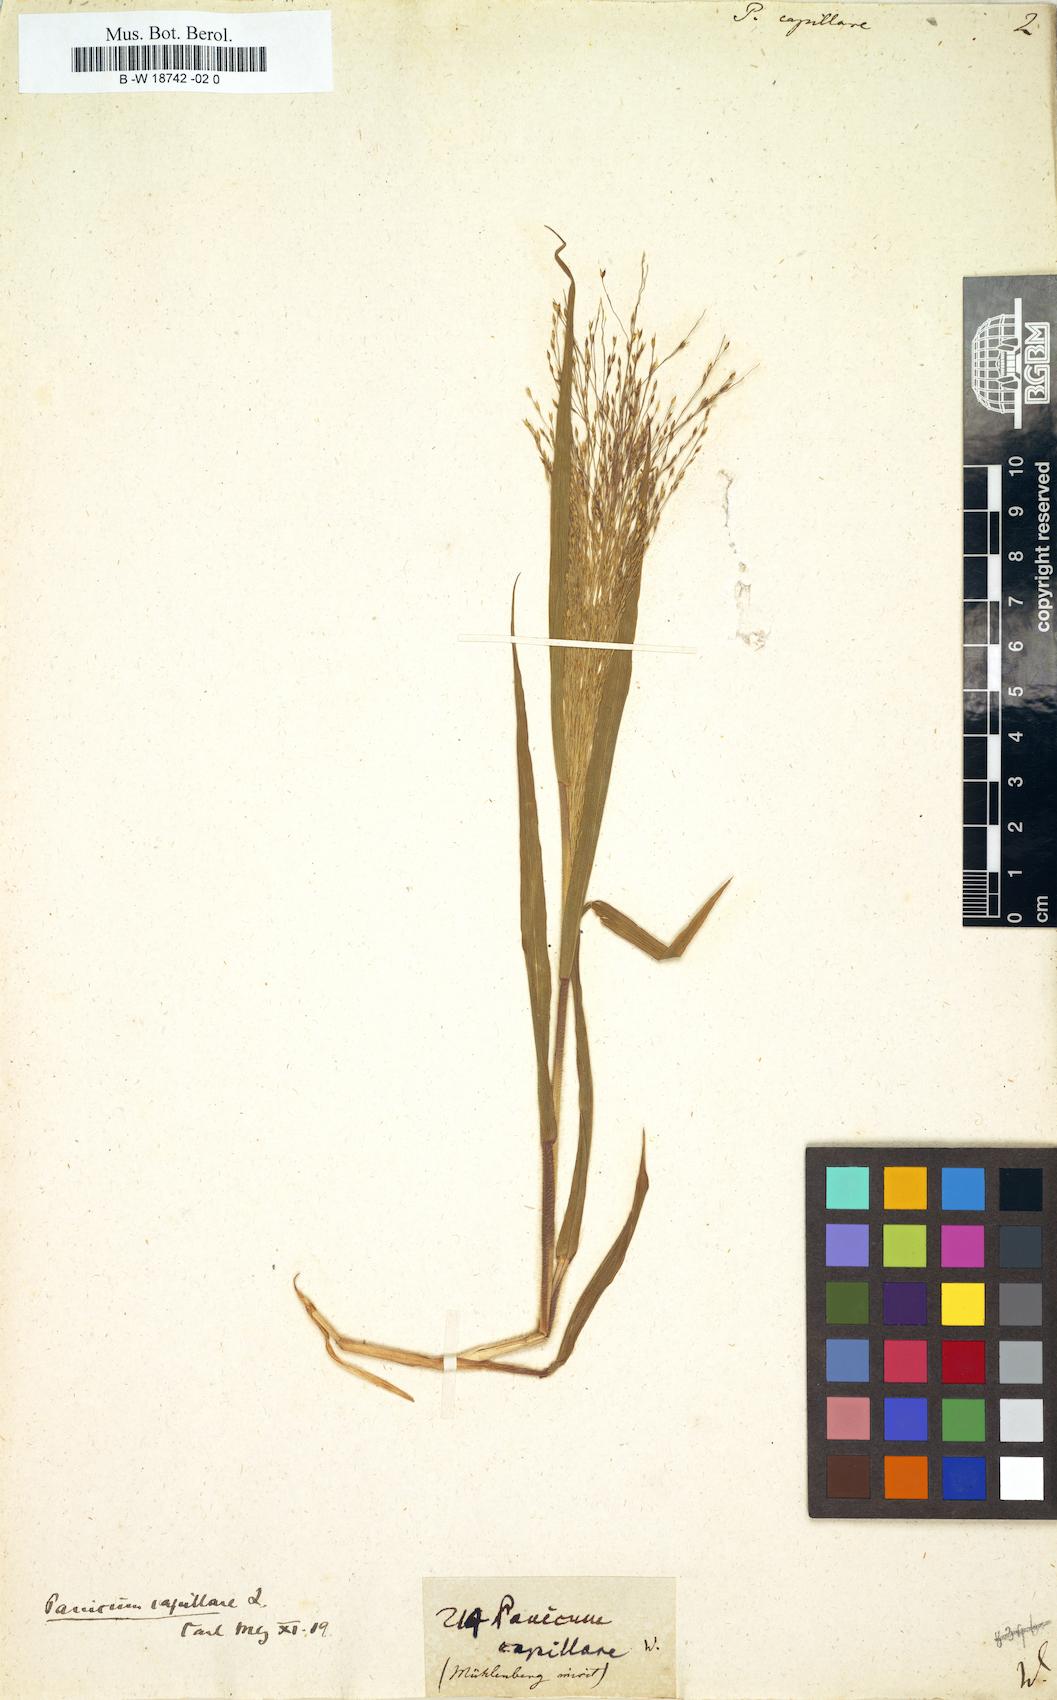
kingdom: Plantae
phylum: Tracheophyta
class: Liliopsida
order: Poales
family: Poaceae
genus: Panicum
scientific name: Panicum capillare
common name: Witch-grass
